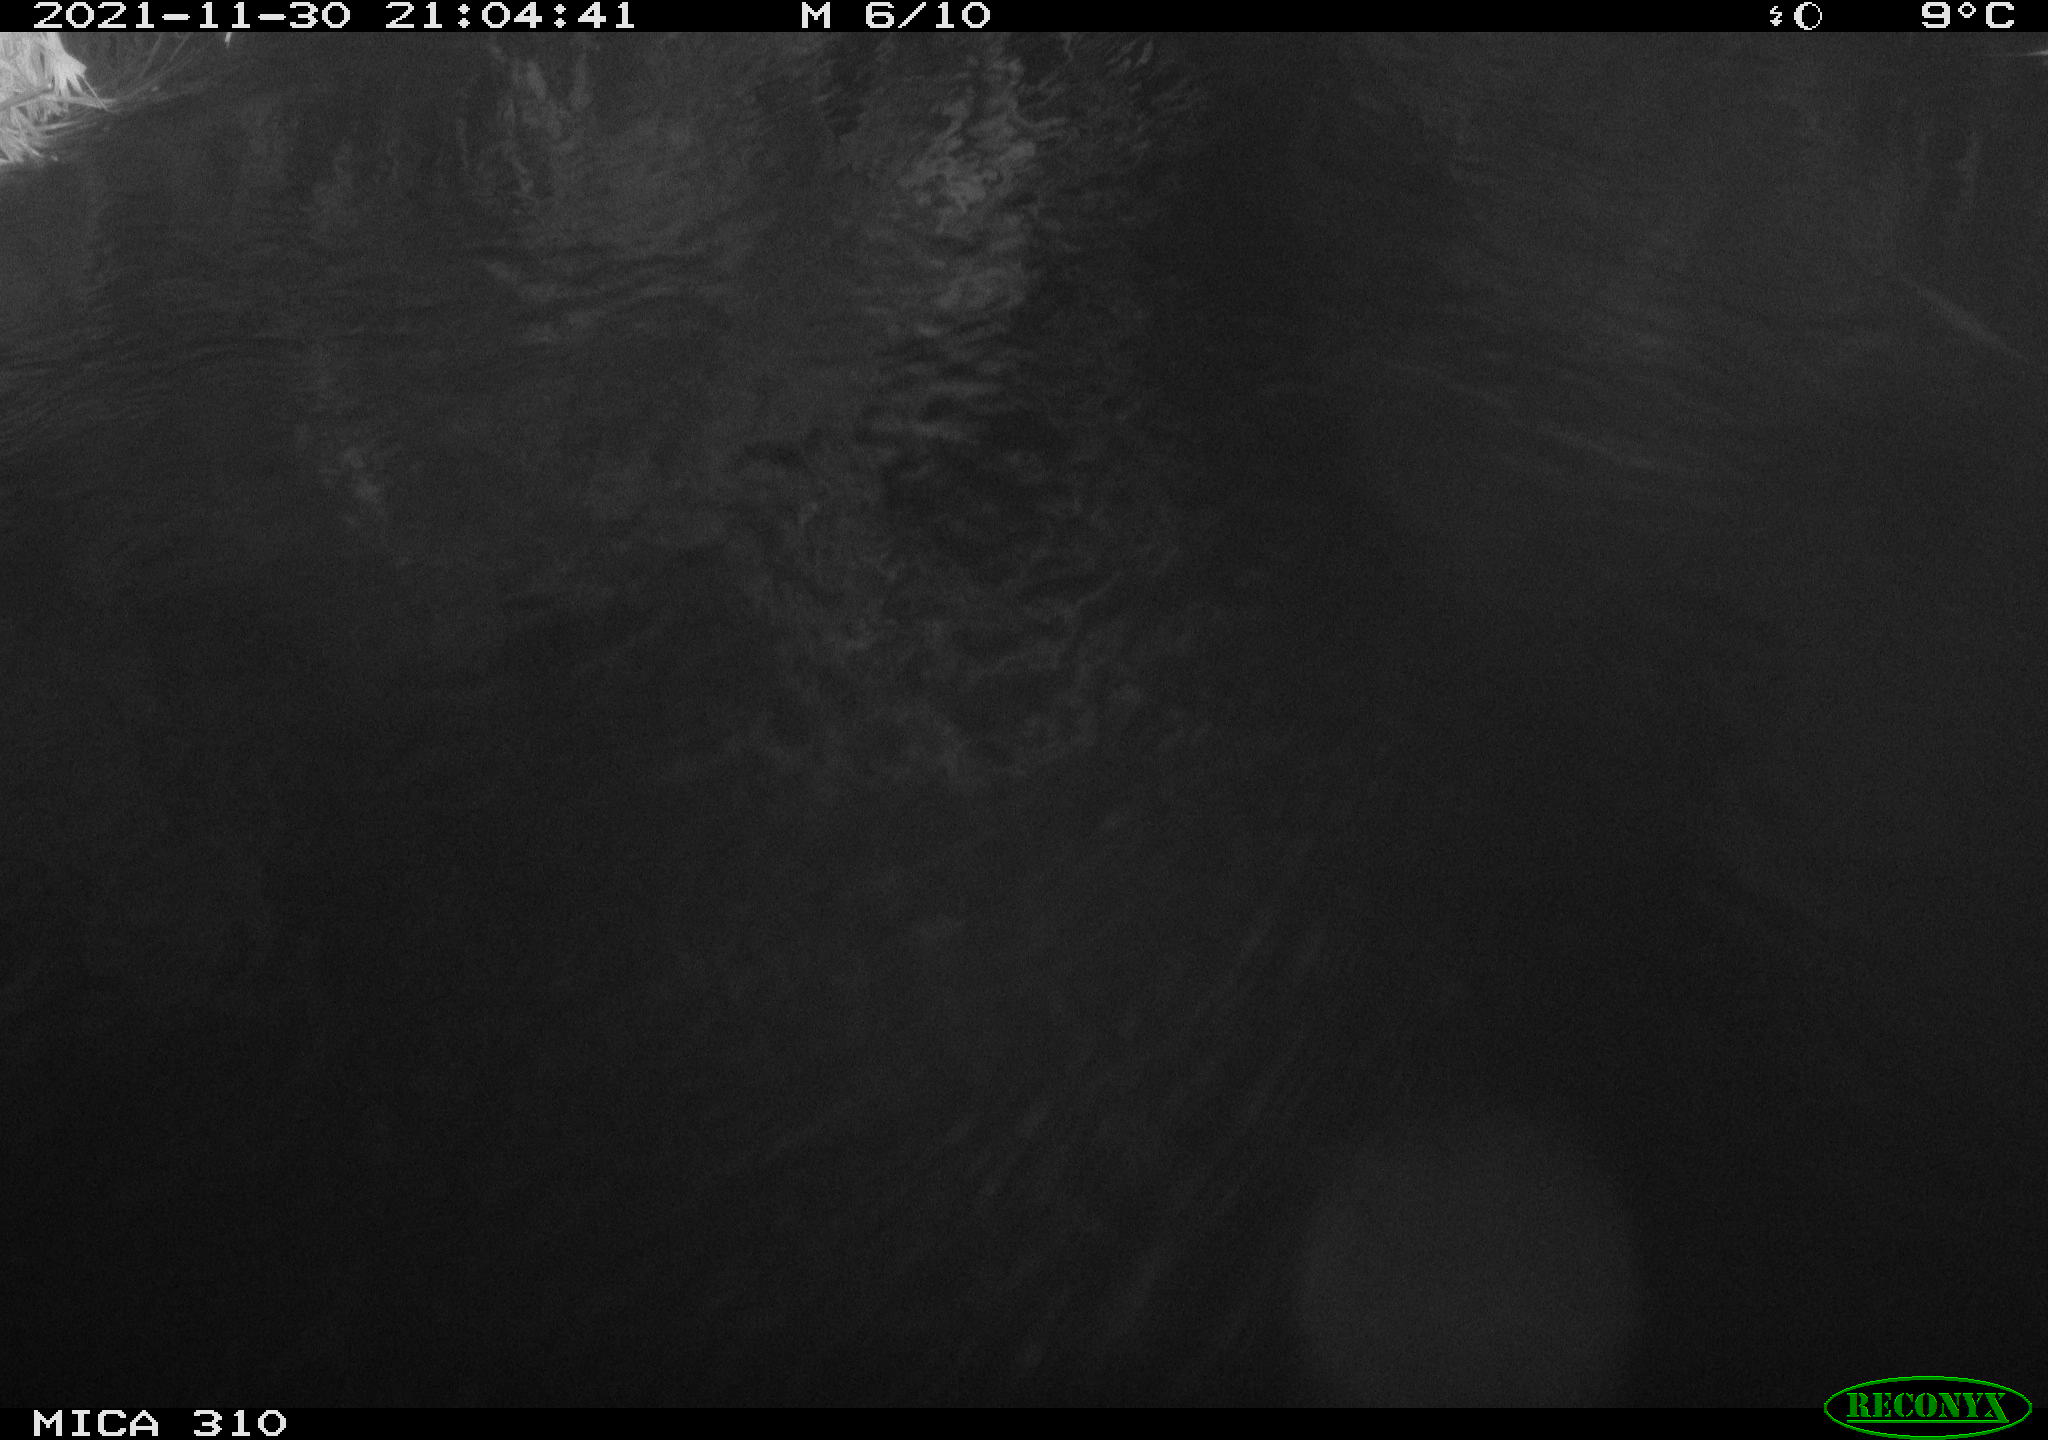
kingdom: Animalia
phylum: Chordata
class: Mammalia
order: Rodentia
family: Muridae
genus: Rattus
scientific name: Rattus norvegicus
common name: Brown rat
